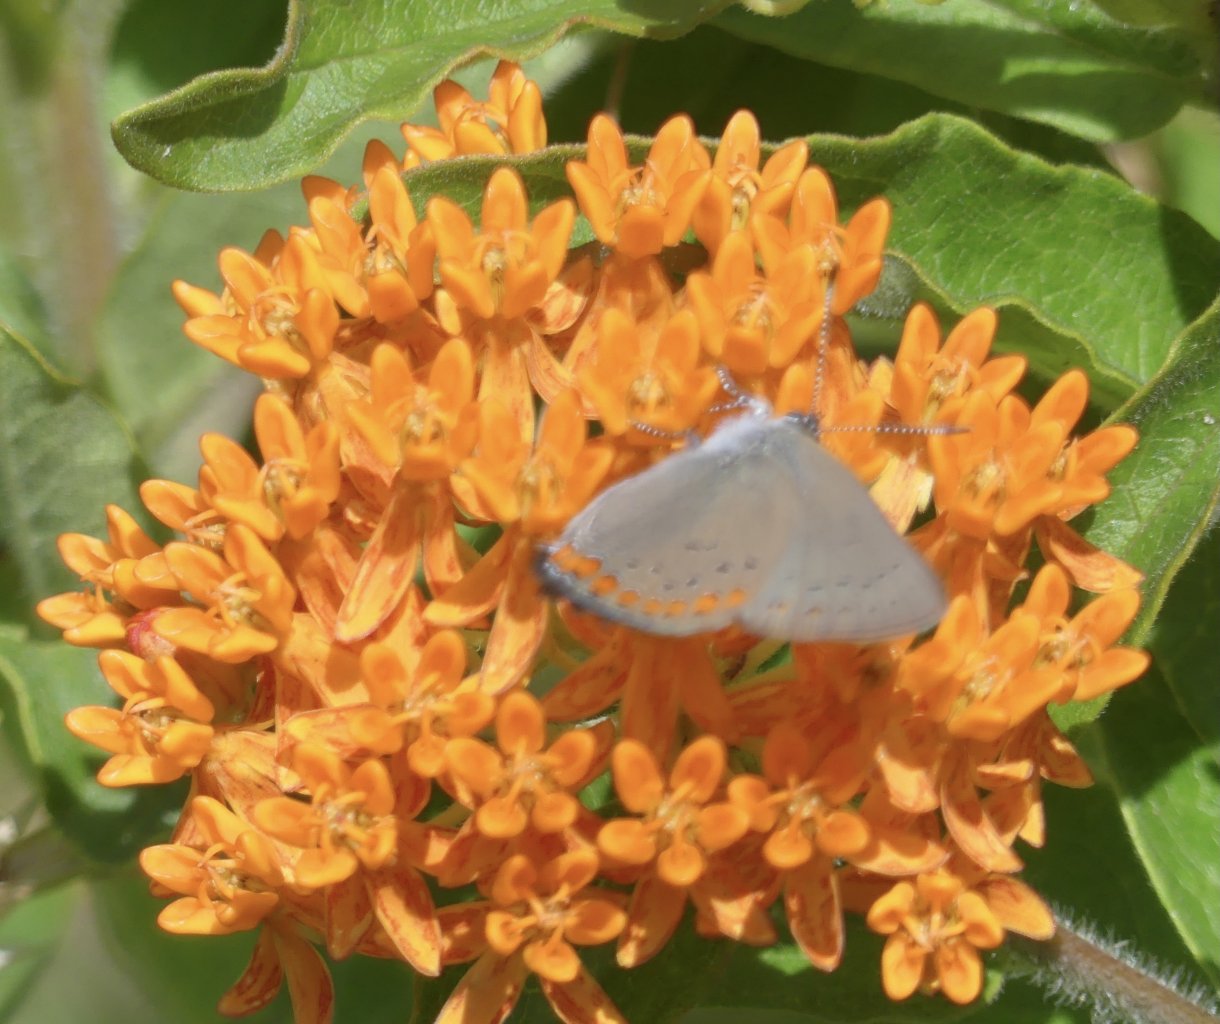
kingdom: Animalia
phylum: Arthropoda
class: Insecta
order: Lepidoptera
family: Lycaenidae
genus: Harkenclenus
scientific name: Harkenclenus titus
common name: Coral Hairstreak
